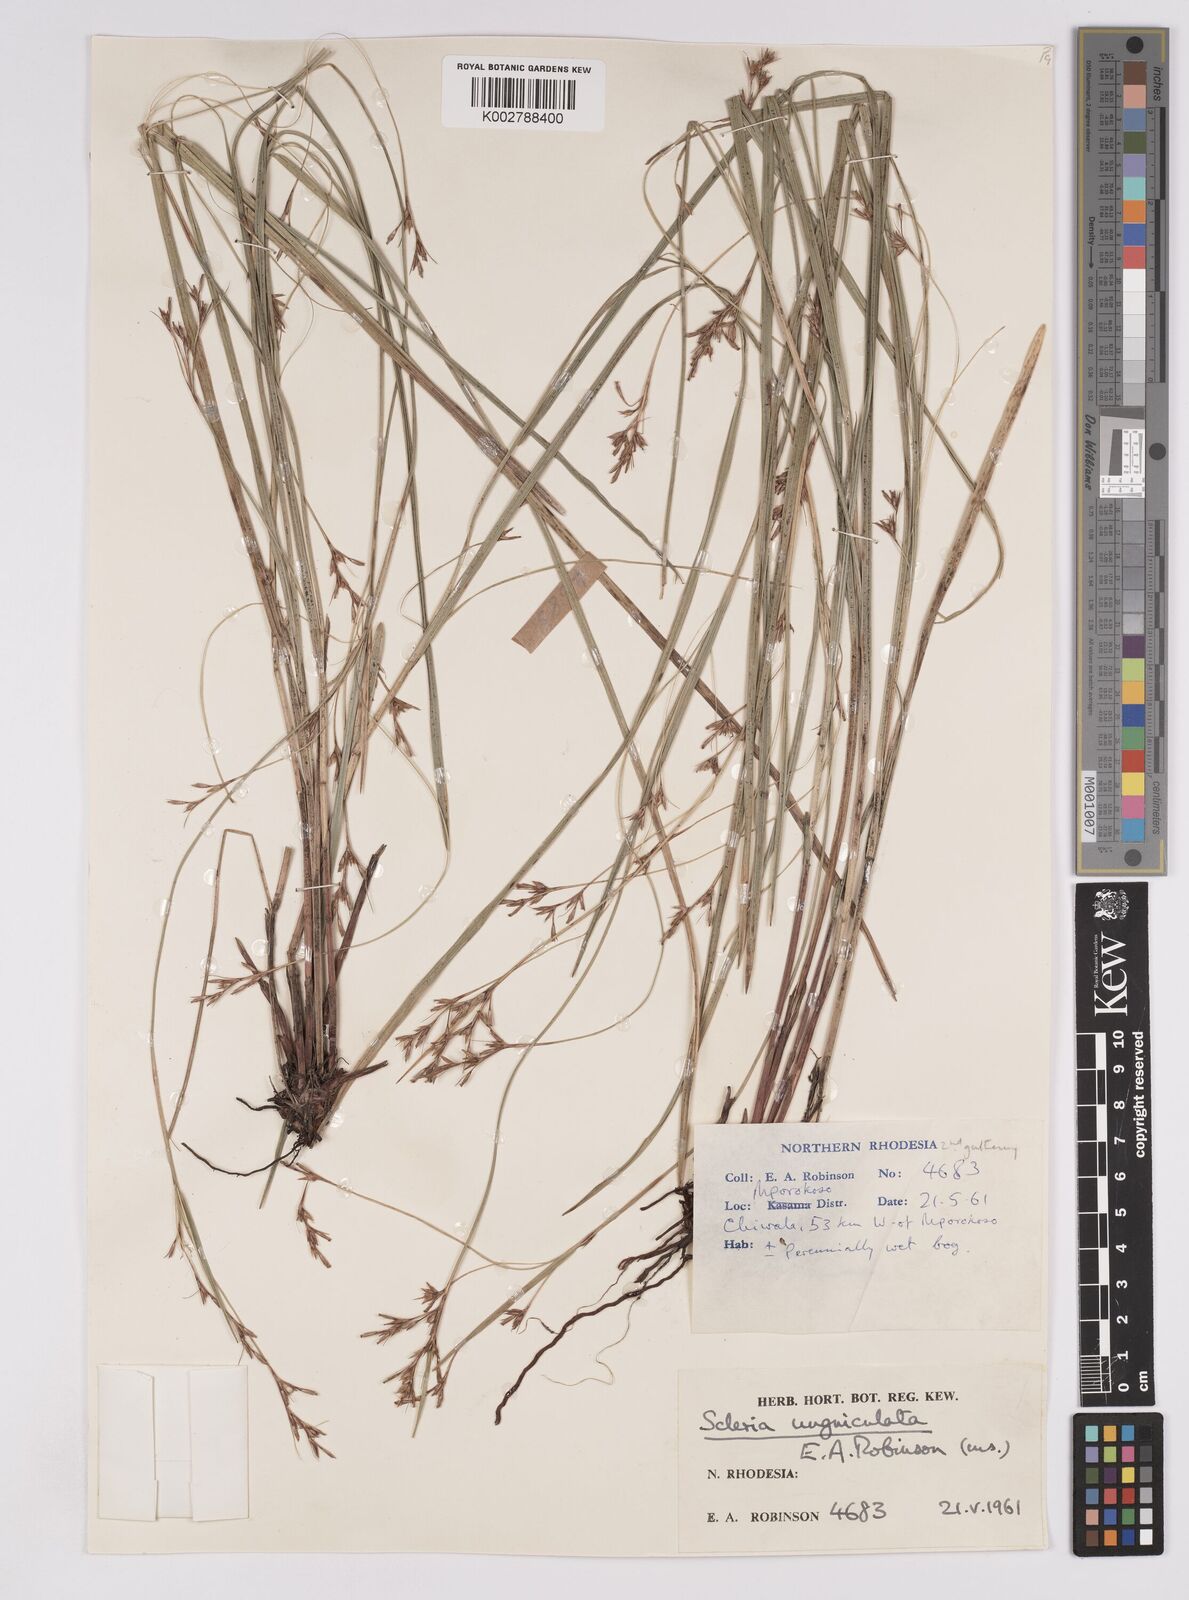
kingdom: Plantae
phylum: Tracheophyta
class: Liliopsida
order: Poales
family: Cyperaceae
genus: Scleria
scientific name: Scleria unguiculata
